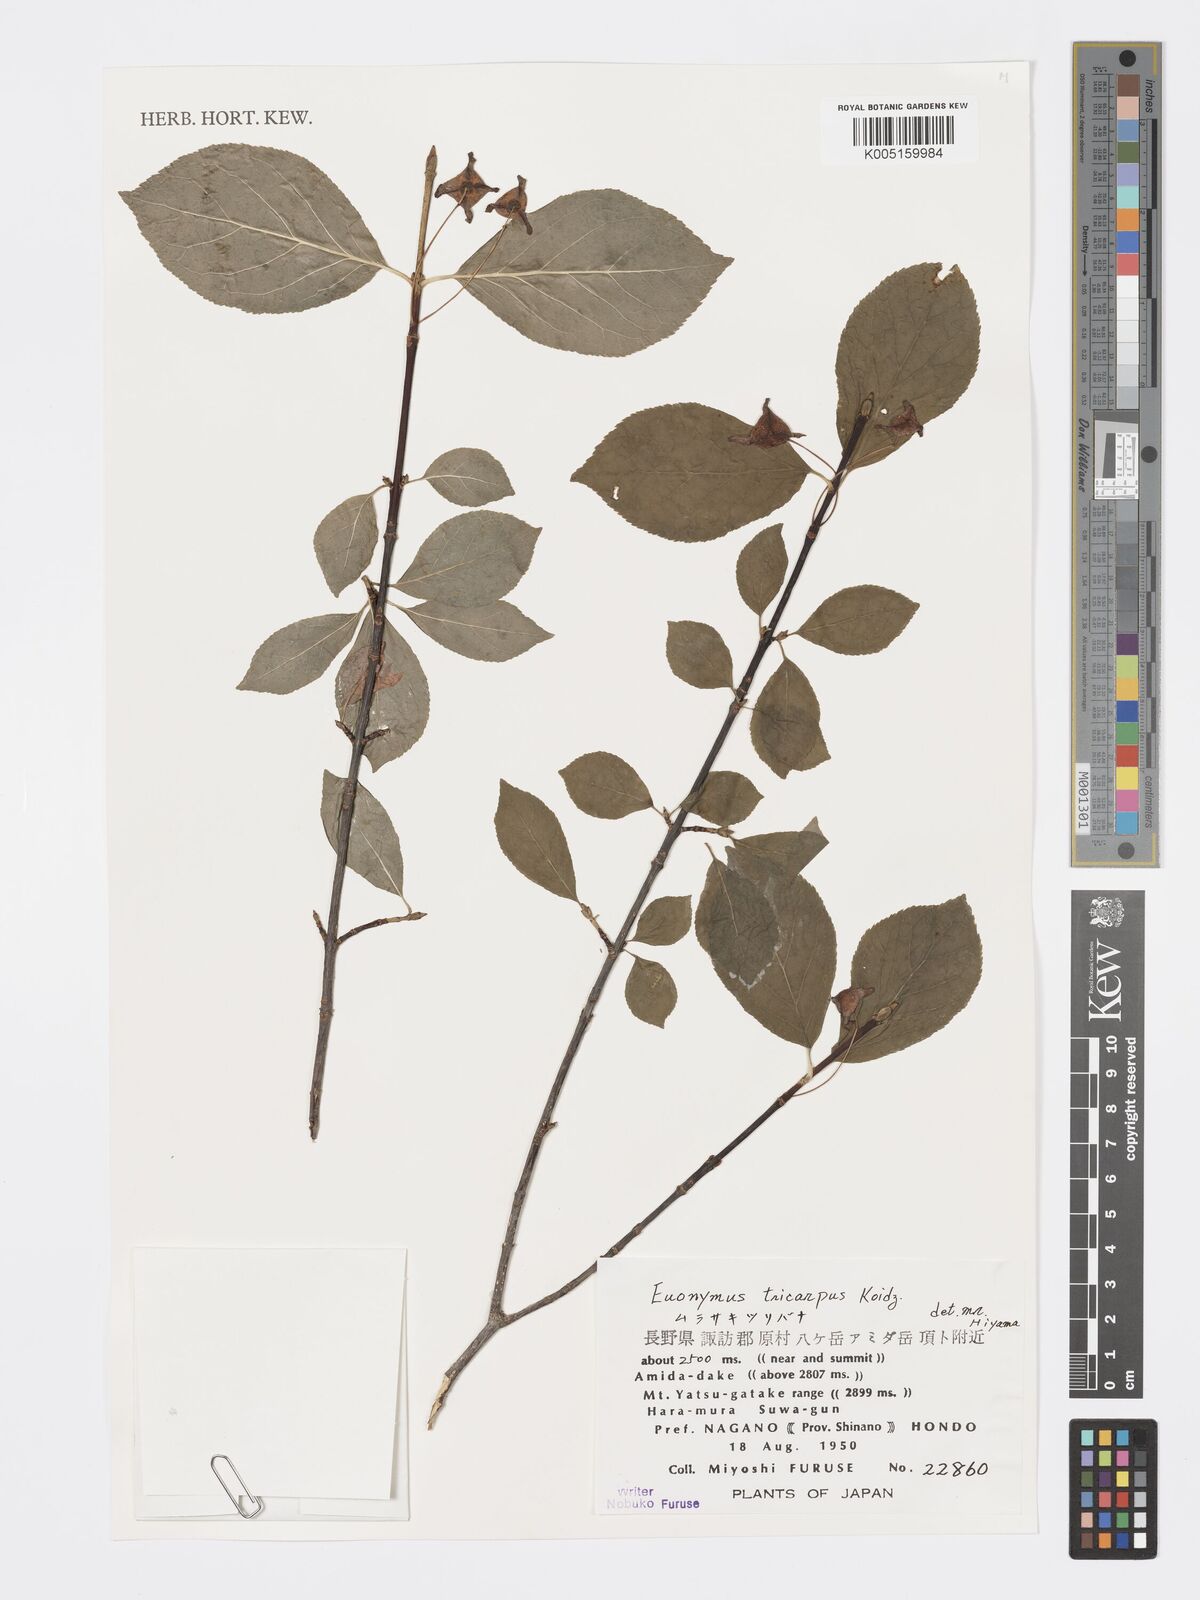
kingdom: Plantae
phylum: Tracheophyta
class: Magnoliopsida
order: Celastrales
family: Celastraceae
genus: Euonymus
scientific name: Euonymus sachalinensis
